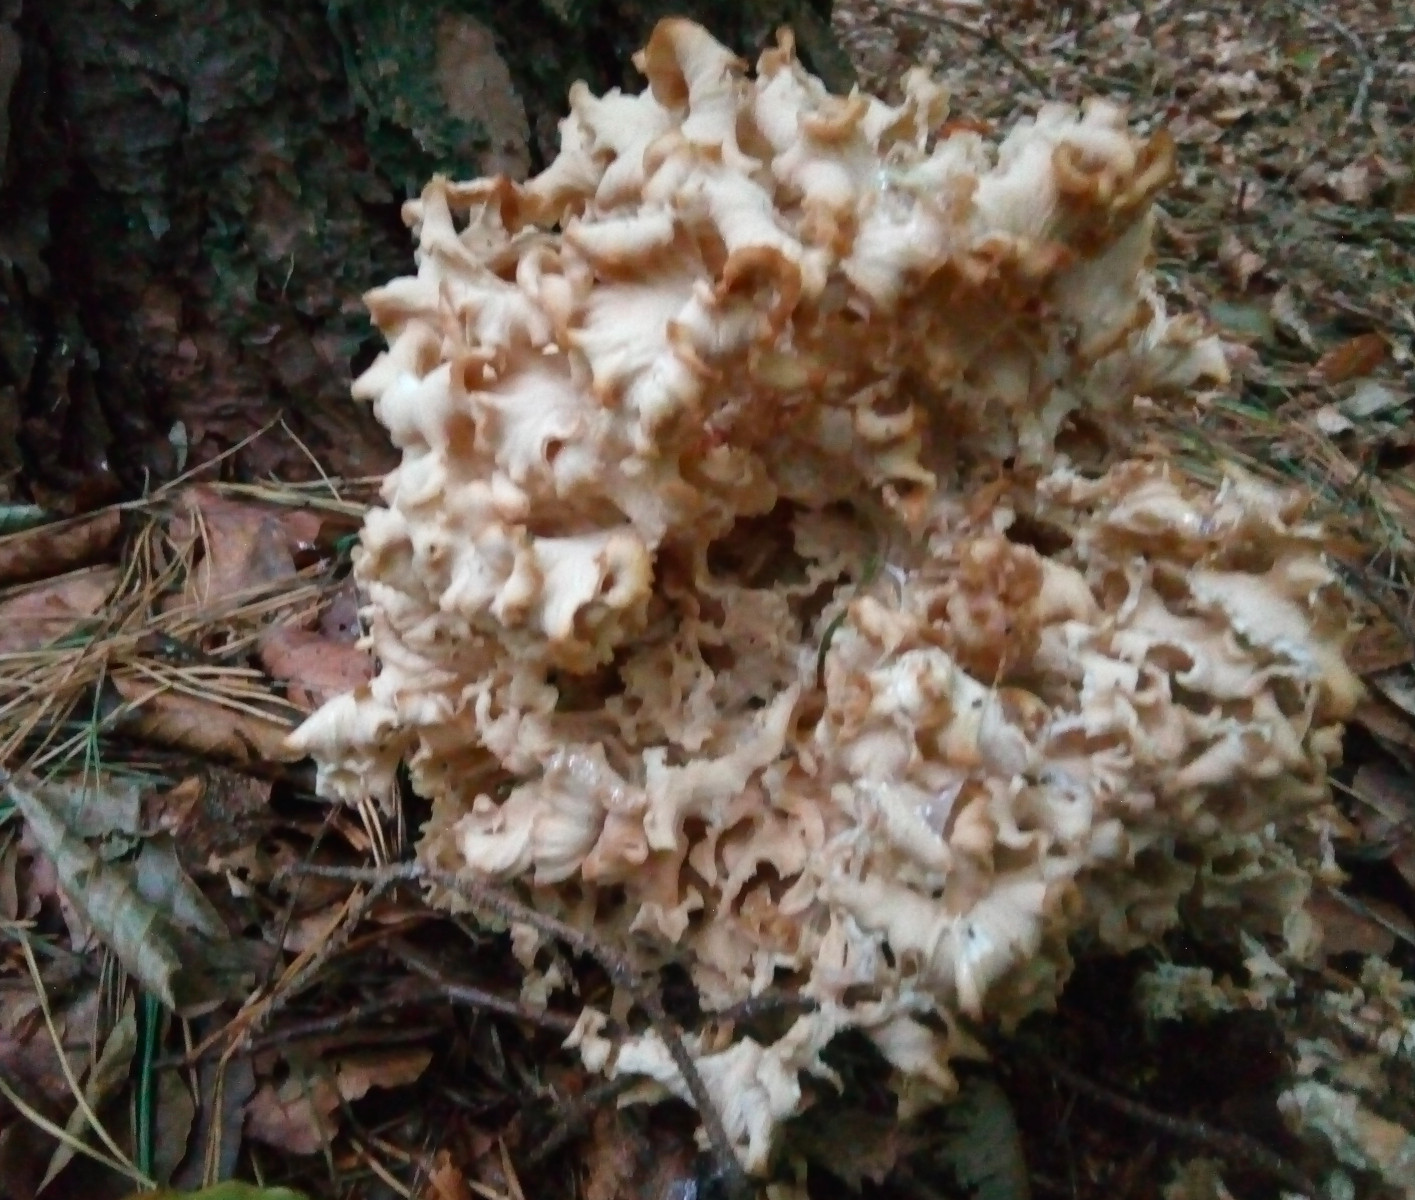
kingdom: Fungi
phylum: Basidiomycota
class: Agaricomycetes
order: Polyporales
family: Sparassidaceae
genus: Sparassis
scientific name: Sparassis crispa
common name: kruset blomkålssvamp
